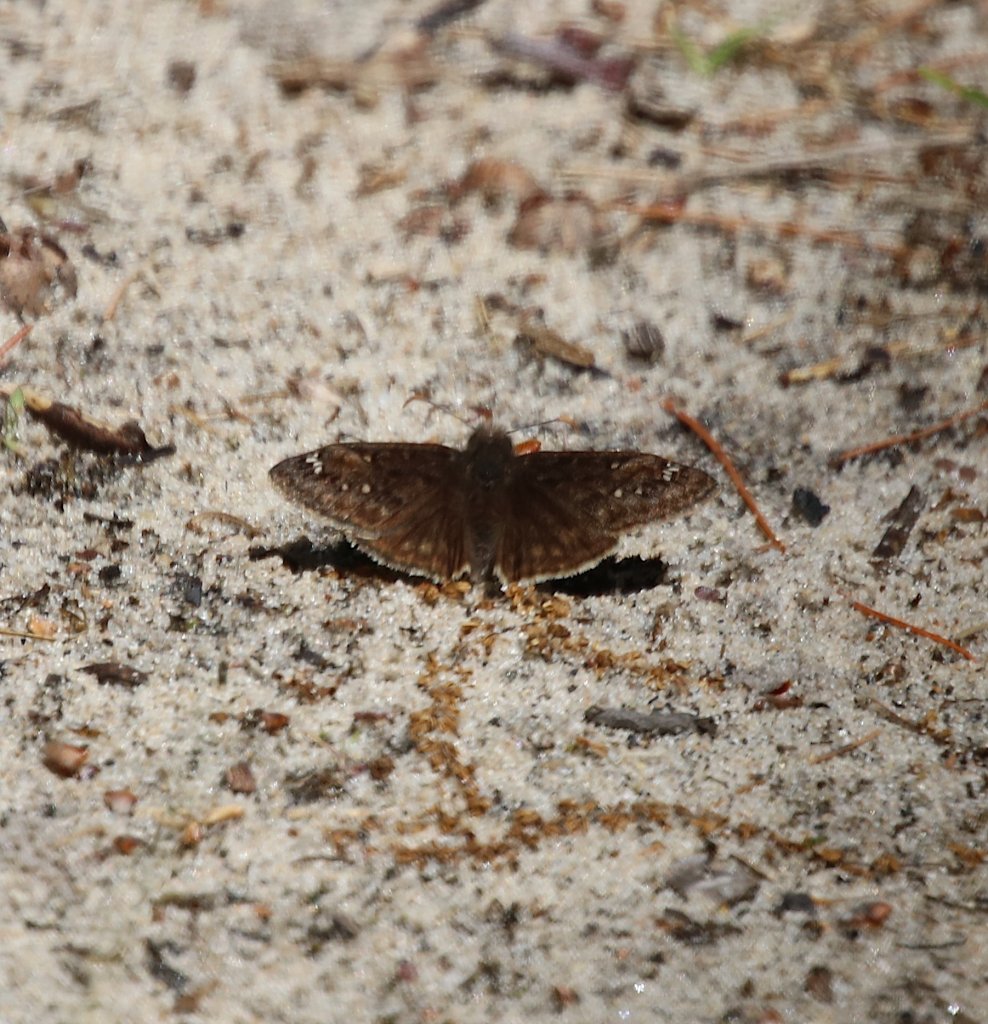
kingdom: Animalia
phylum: Arthropoda
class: Insecta
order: Lepidoptera
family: Hesperiidae
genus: Gesta
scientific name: Gesta
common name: Juvenal's Duskywing
